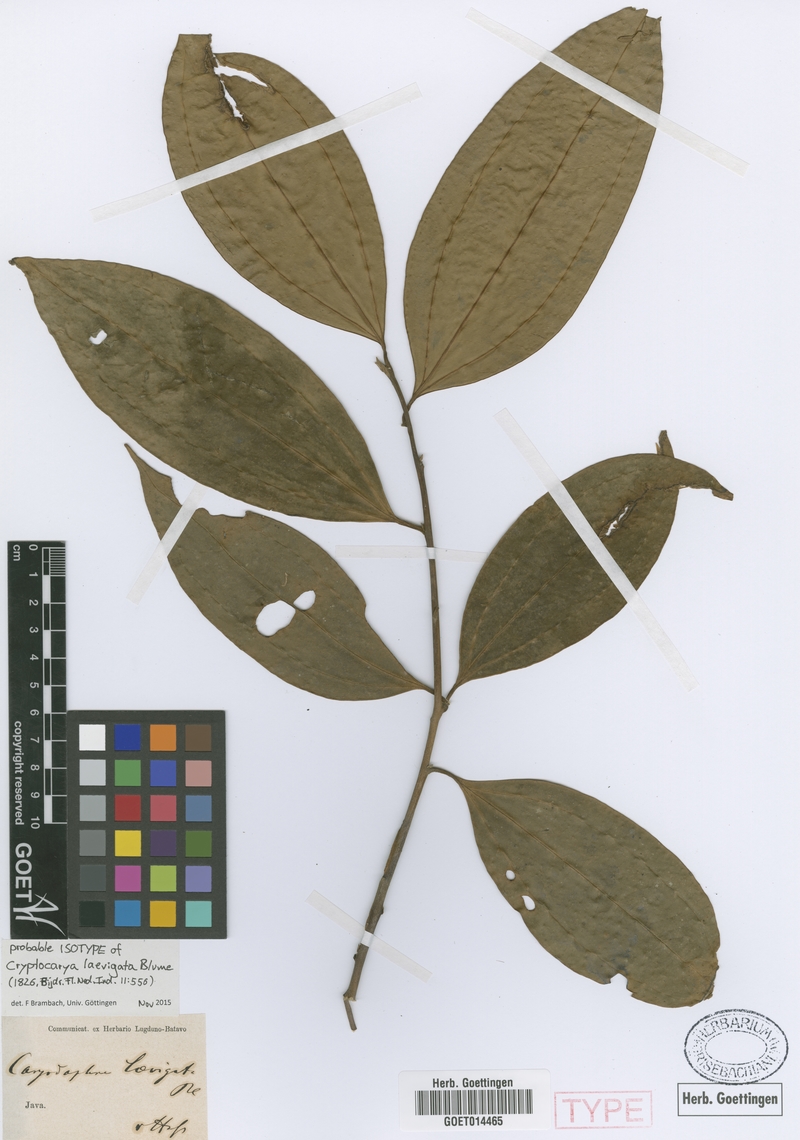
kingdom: Plantae
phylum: Tracheophyta
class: Magnoliopsida
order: Laurales
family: Lauraceae
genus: Cryptocarya
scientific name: Cryptocarya laevigata
